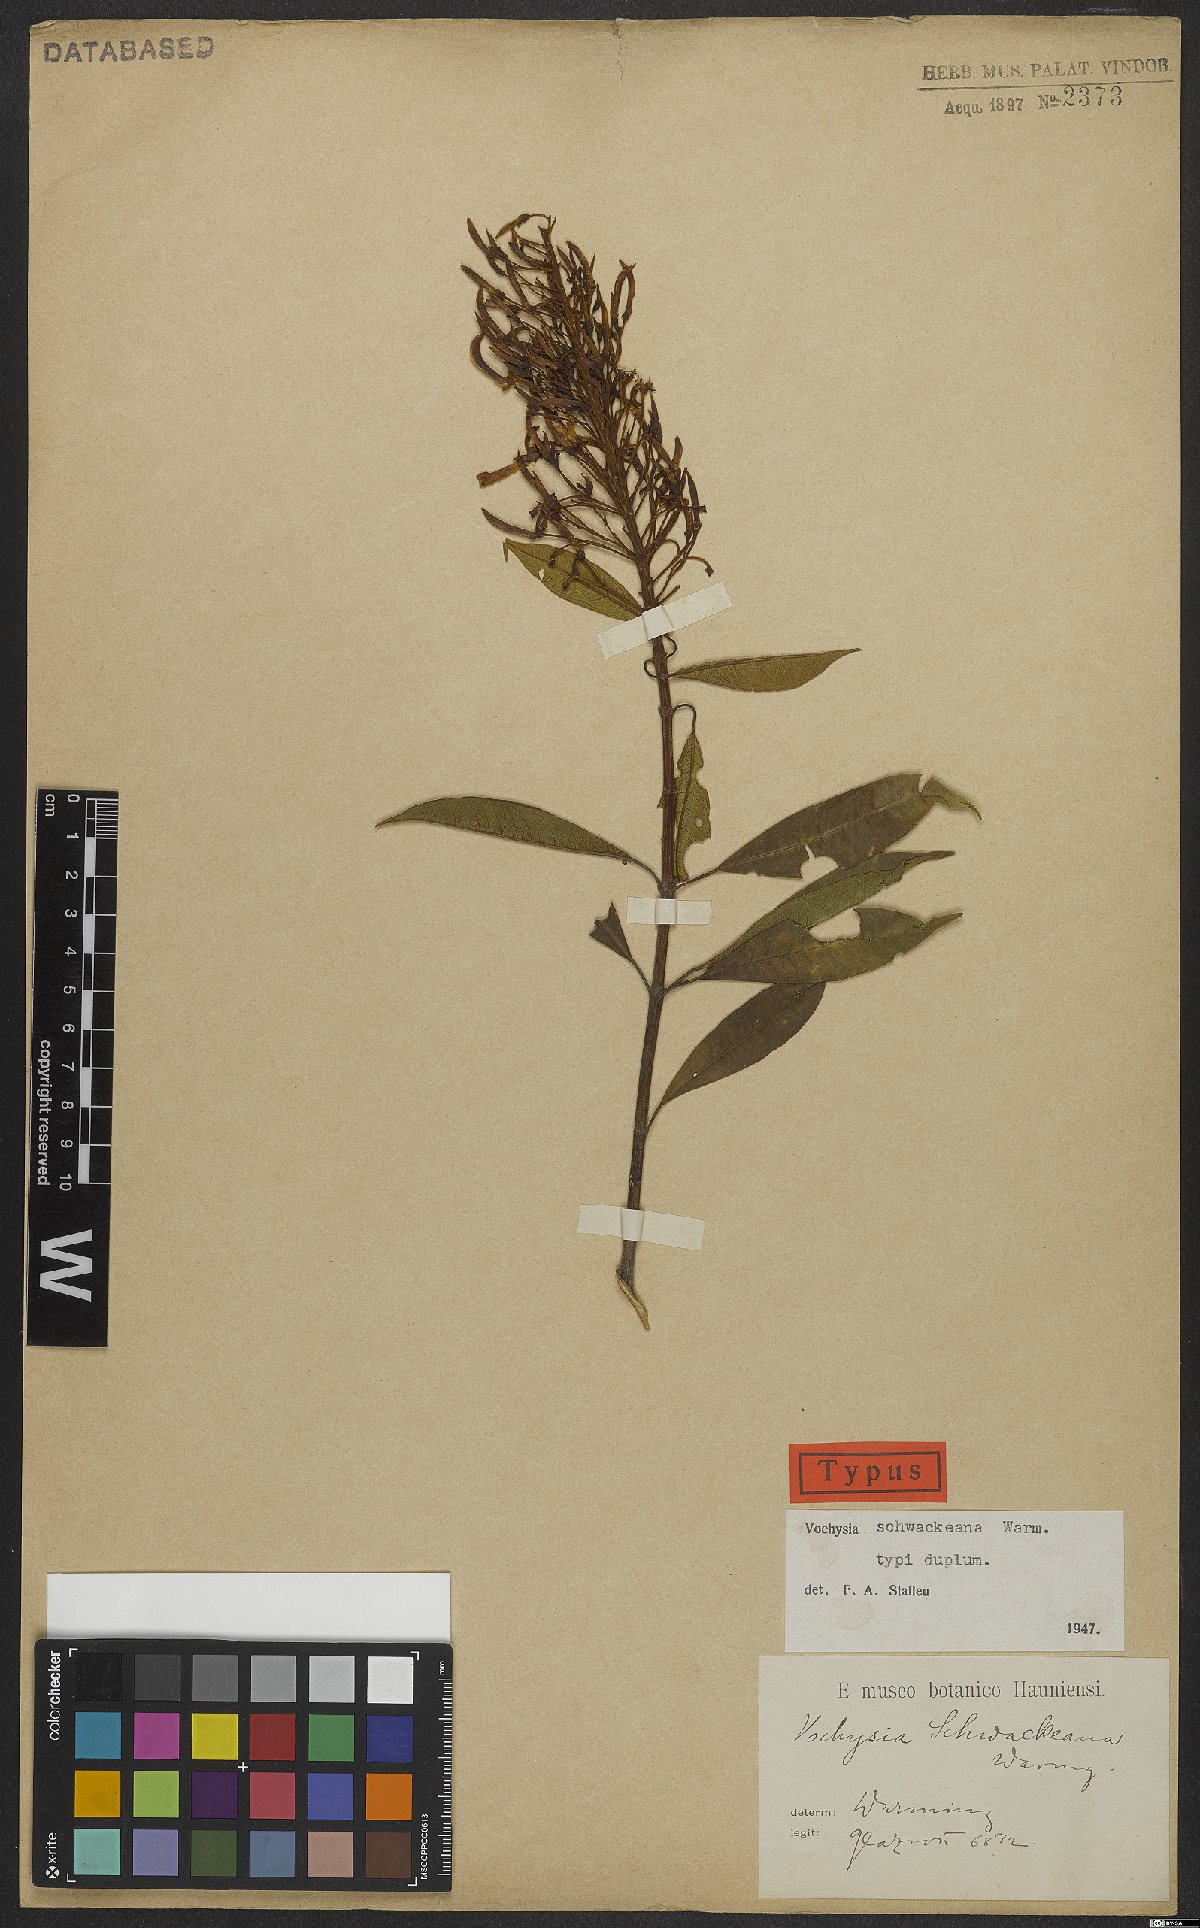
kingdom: Plantae
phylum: Tracheophyta
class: Magnoliopsida
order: Myrtales
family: Vochysiaceae
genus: Vochysia
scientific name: Vochysia schwackeana
